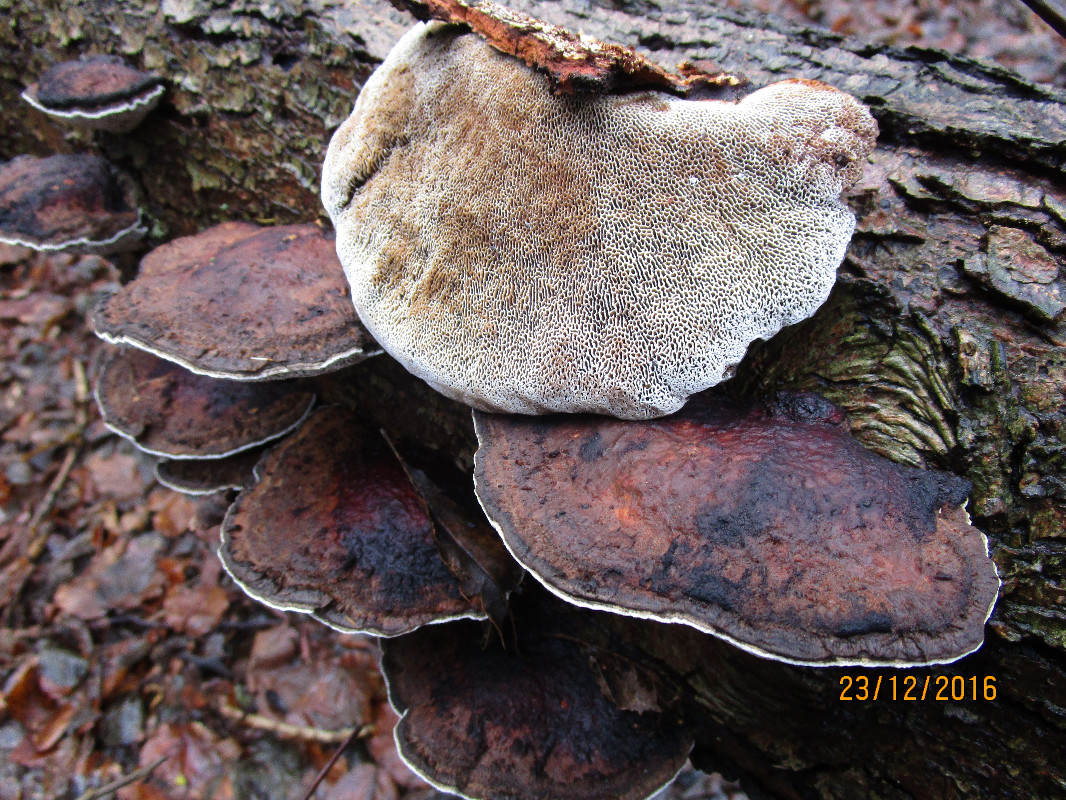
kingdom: Fungi
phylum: Basidiomycota
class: Agaricomycetes
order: Polyporales
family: Polyporaceae
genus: Daedaleopsis
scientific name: Daedaleopsis confragosa
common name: rødmende læderporesvamp
